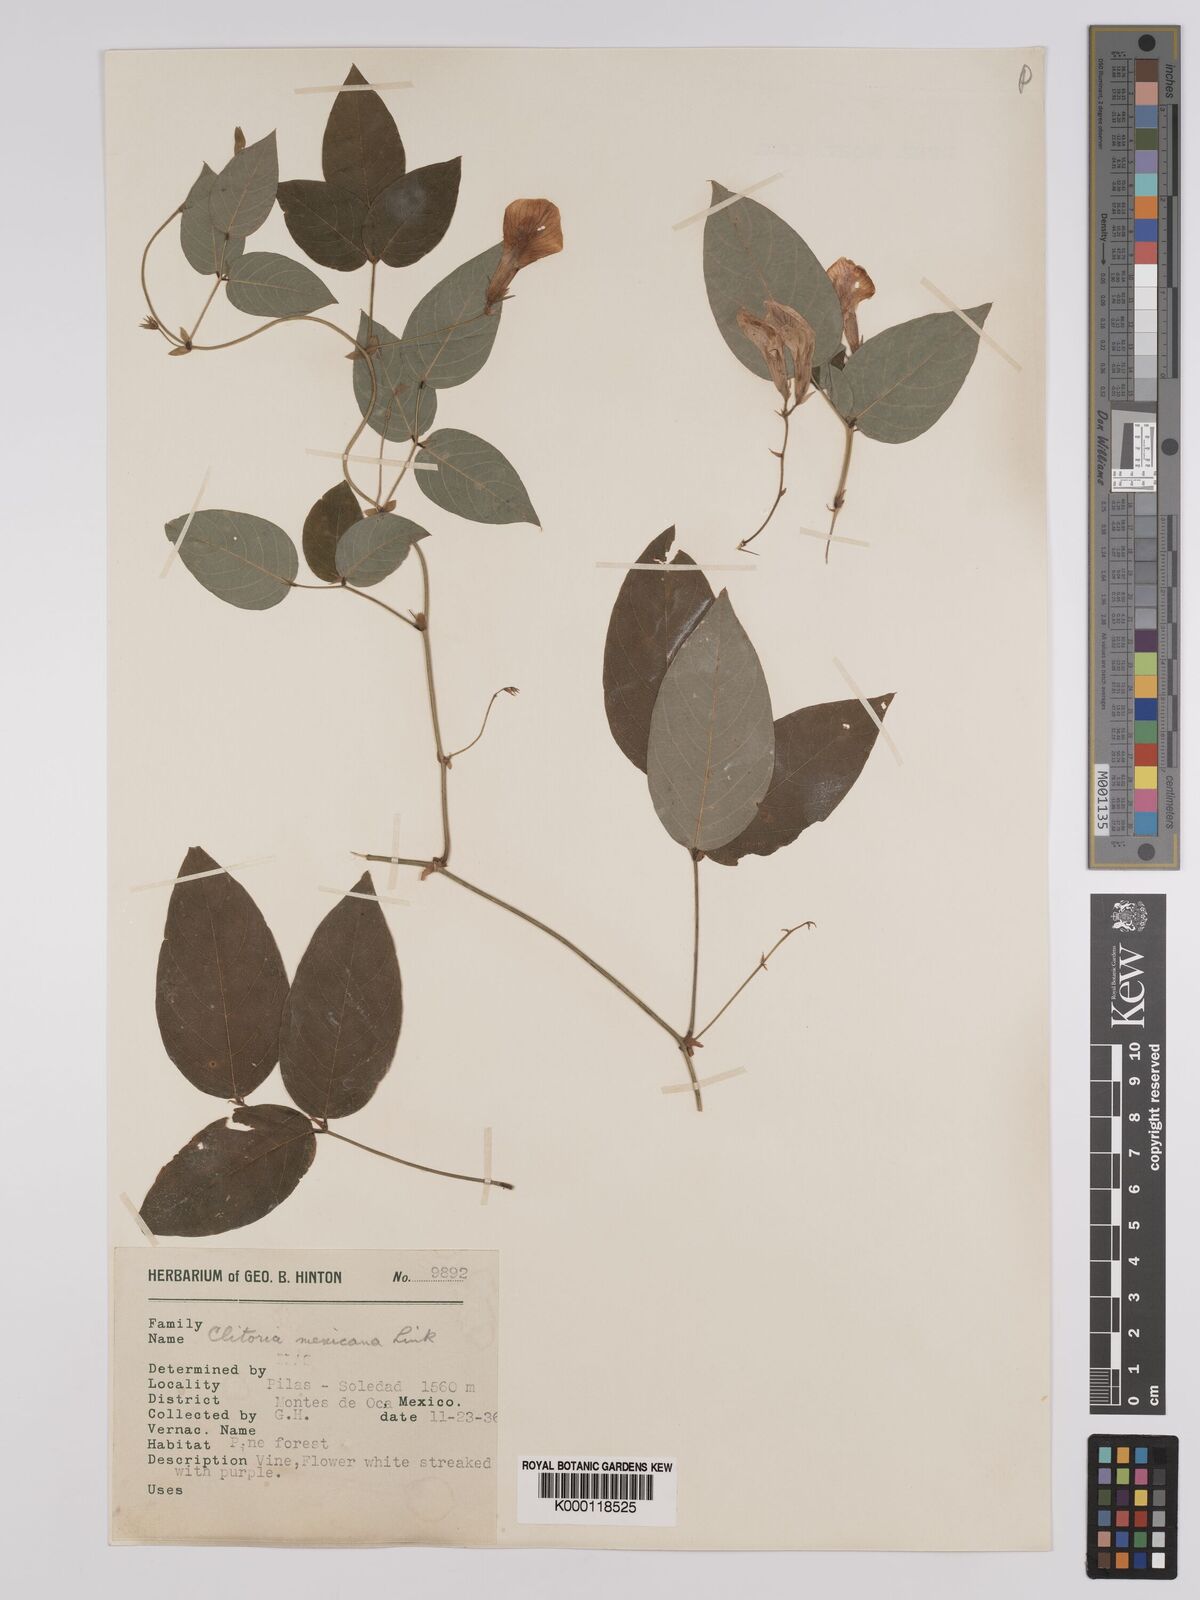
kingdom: Plantae
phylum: Tracheophyta
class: Magnoliopsida
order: Fabales
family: Fabaceae
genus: Clitoria
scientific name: Clitoria mexicana
